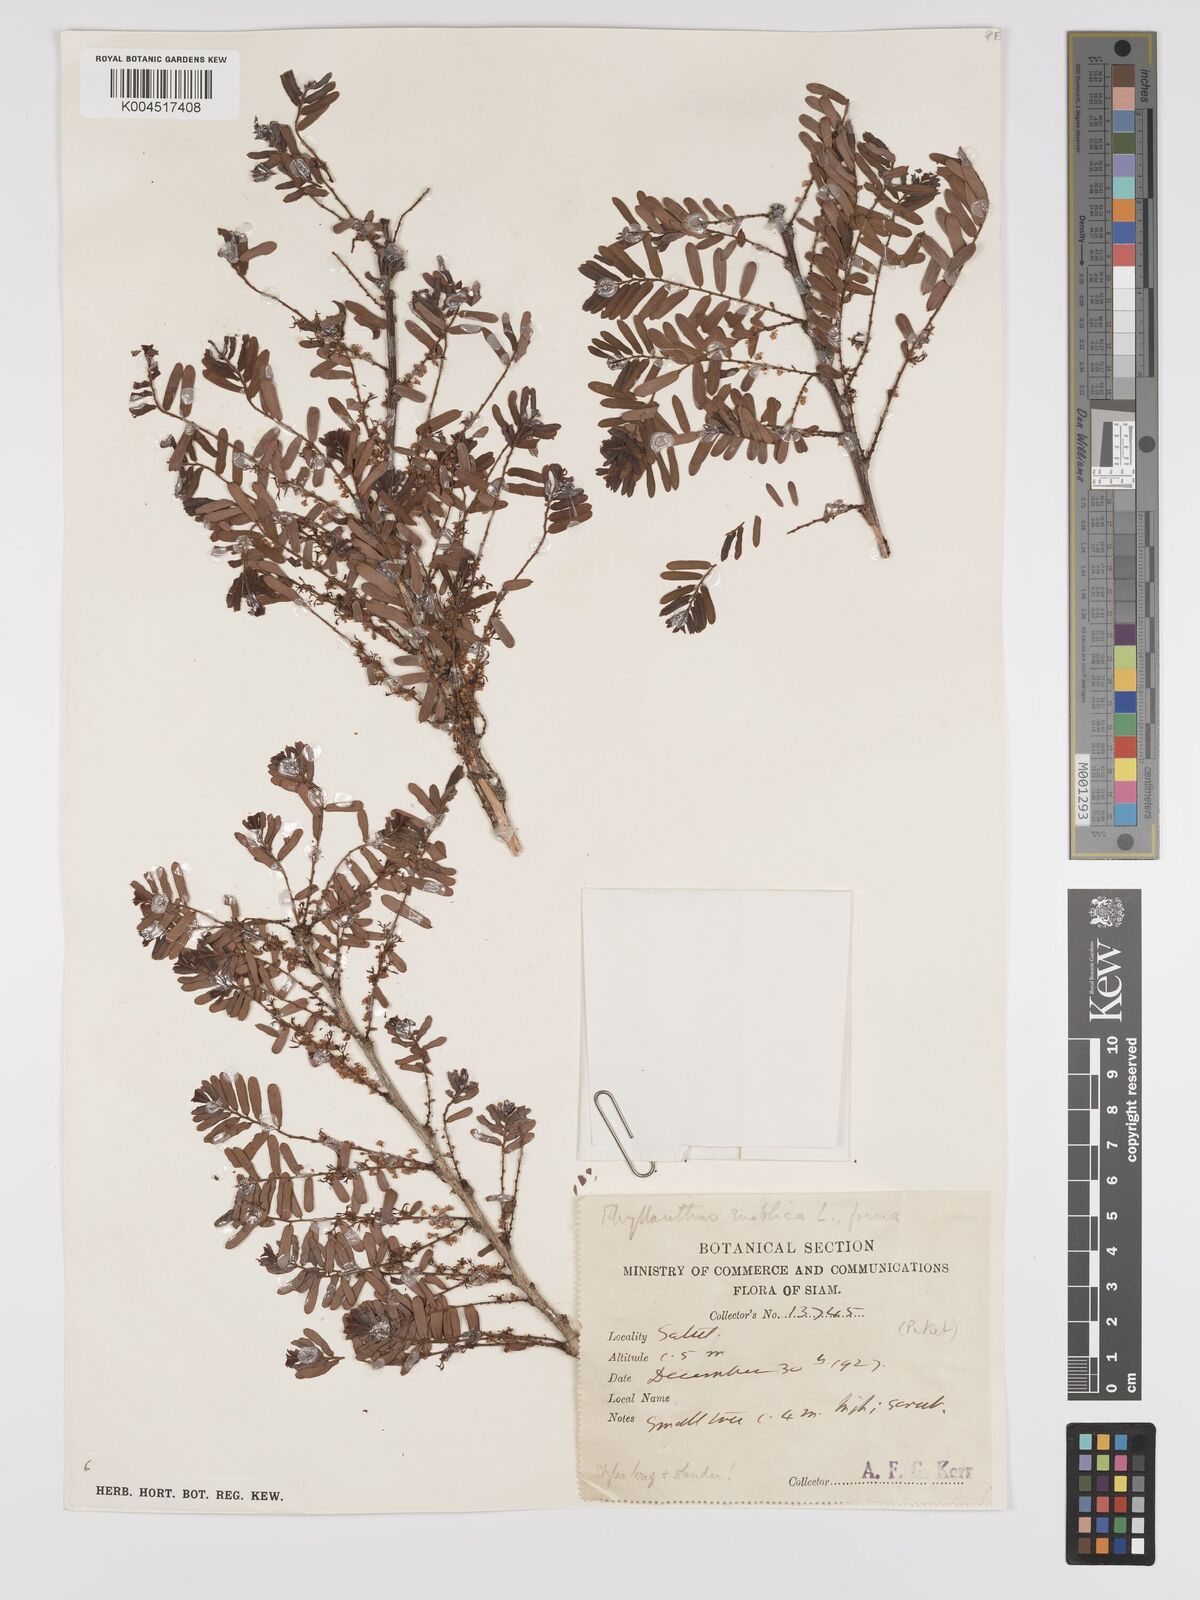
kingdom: Plantae
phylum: Tracheophyta
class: Magnoliopsida
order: Malpighiales
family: Phyllanthaceae
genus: Phyllanthus
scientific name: Phyllanthus emblica
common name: Indian gooseberry
